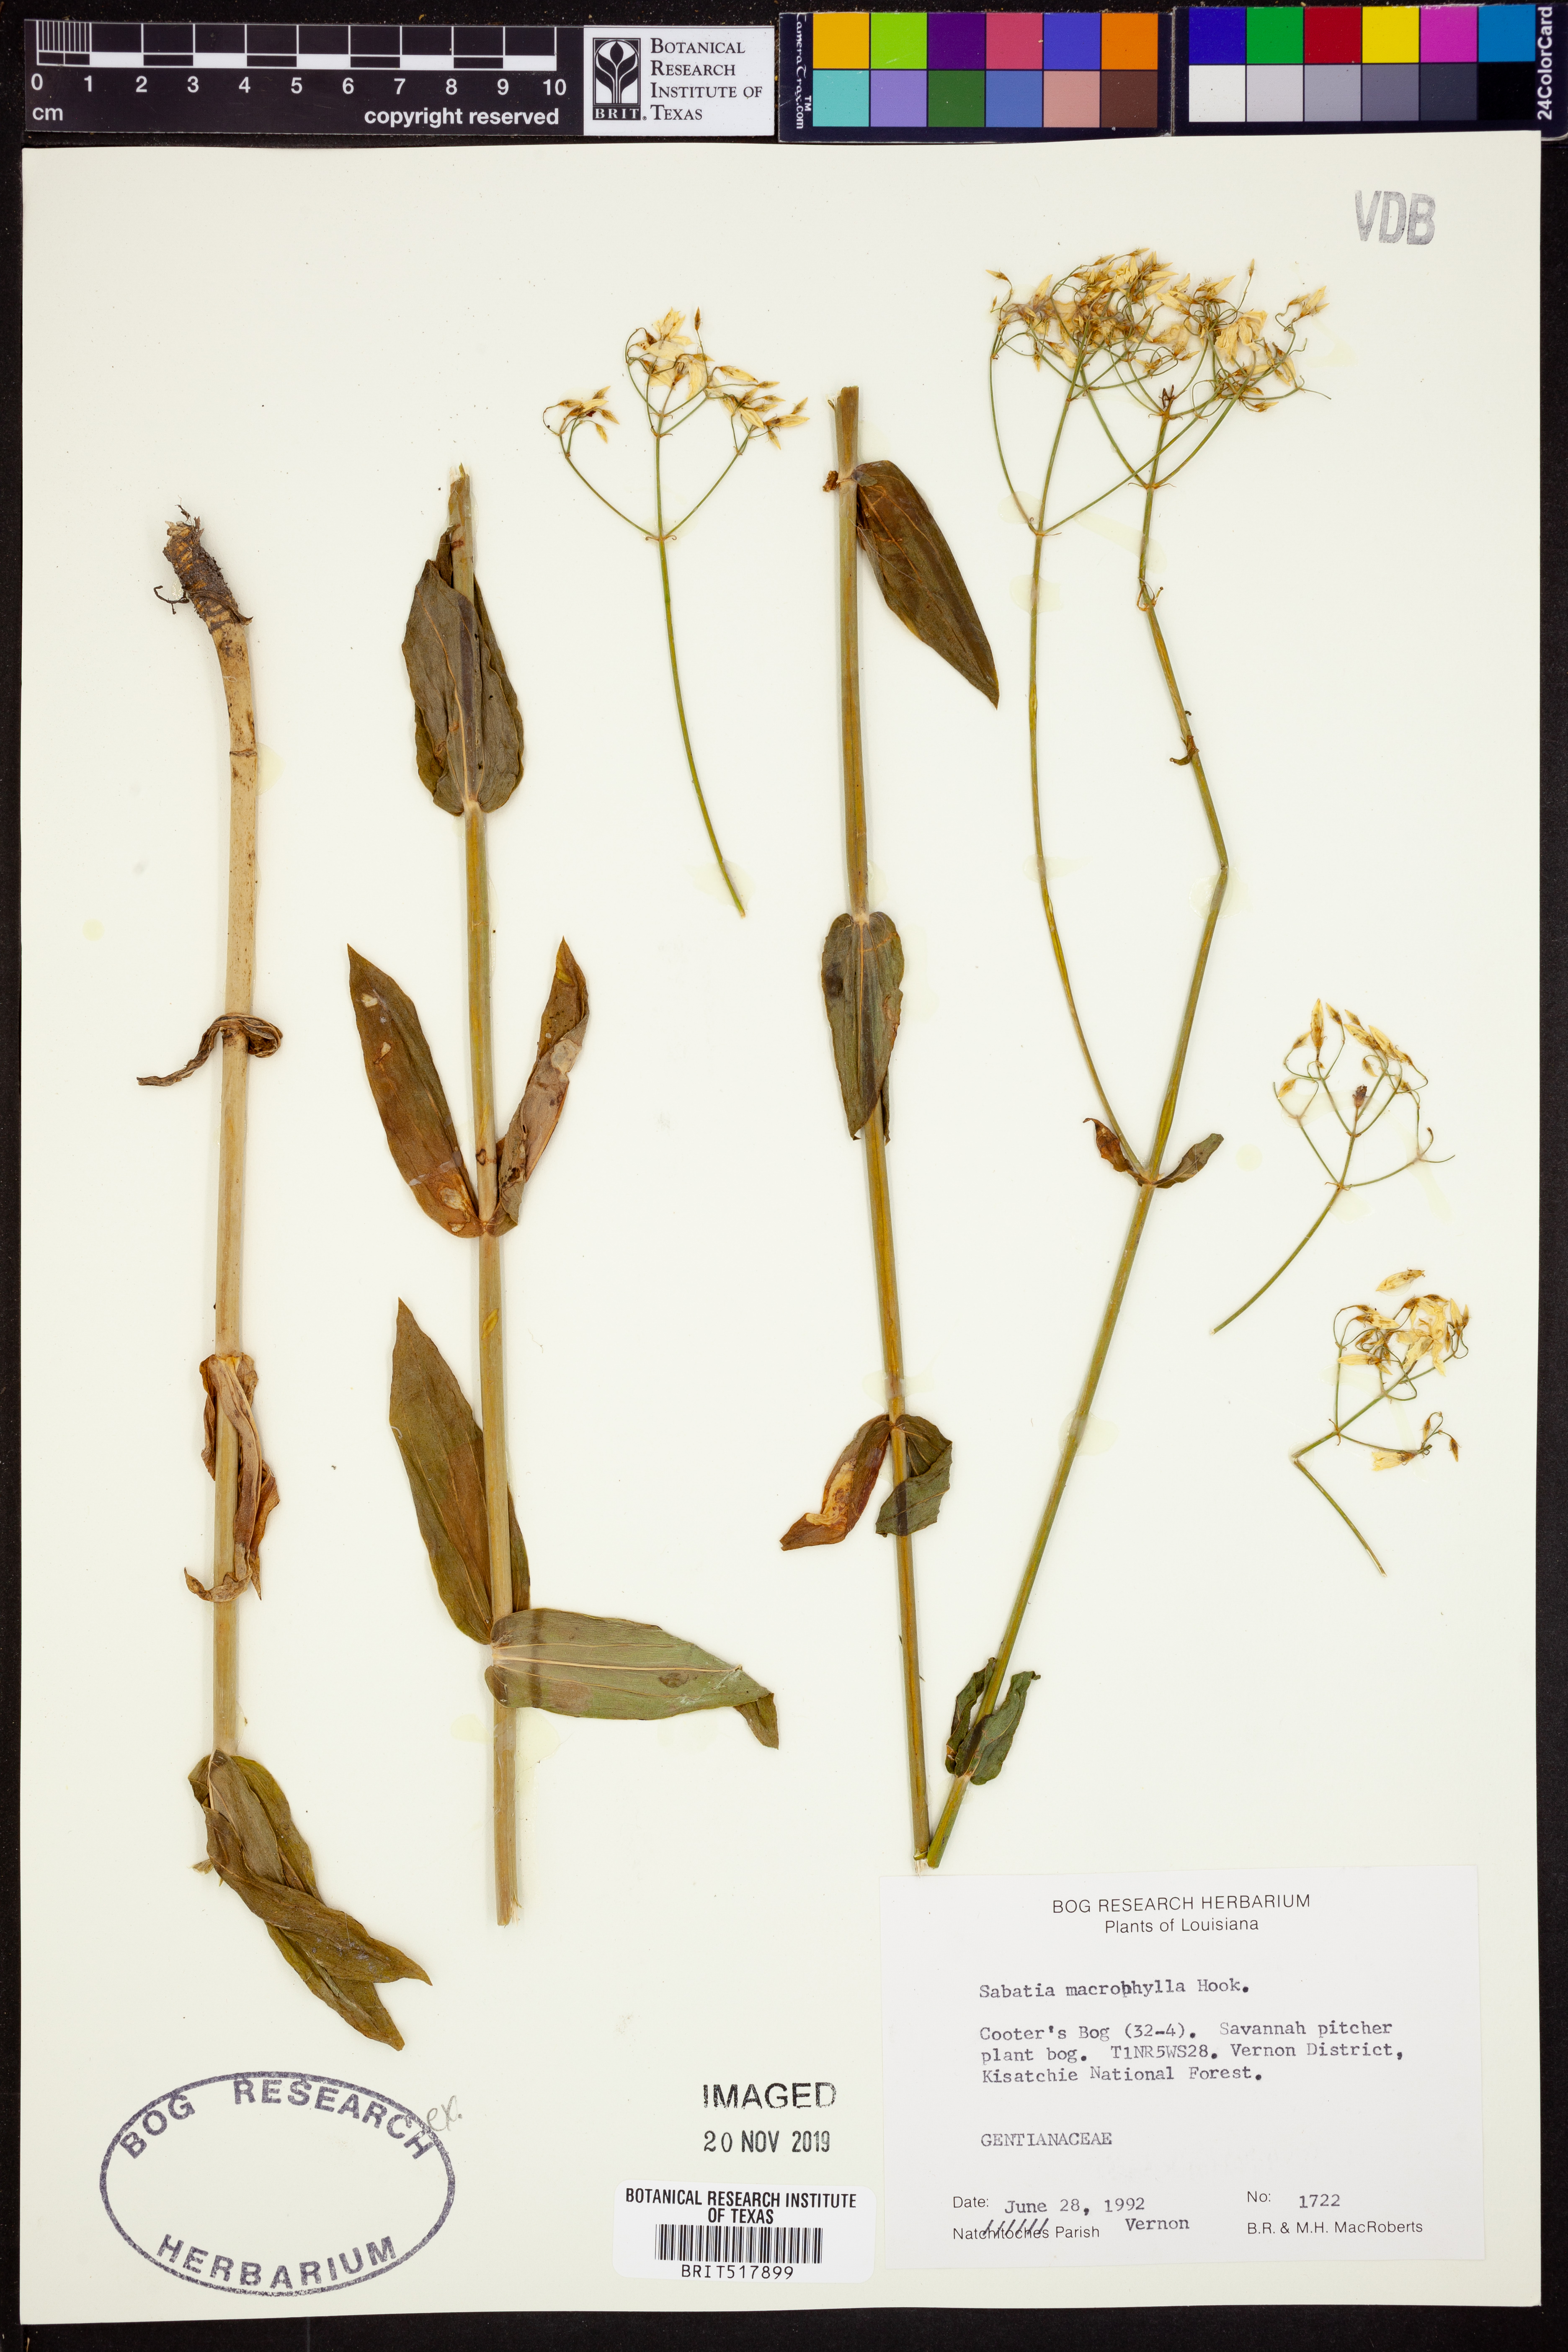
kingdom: Plantae
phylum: Tracheophyta
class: Magnoliopsida
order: Gentianales
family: Gentianaceae
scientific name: Gentianaceae
